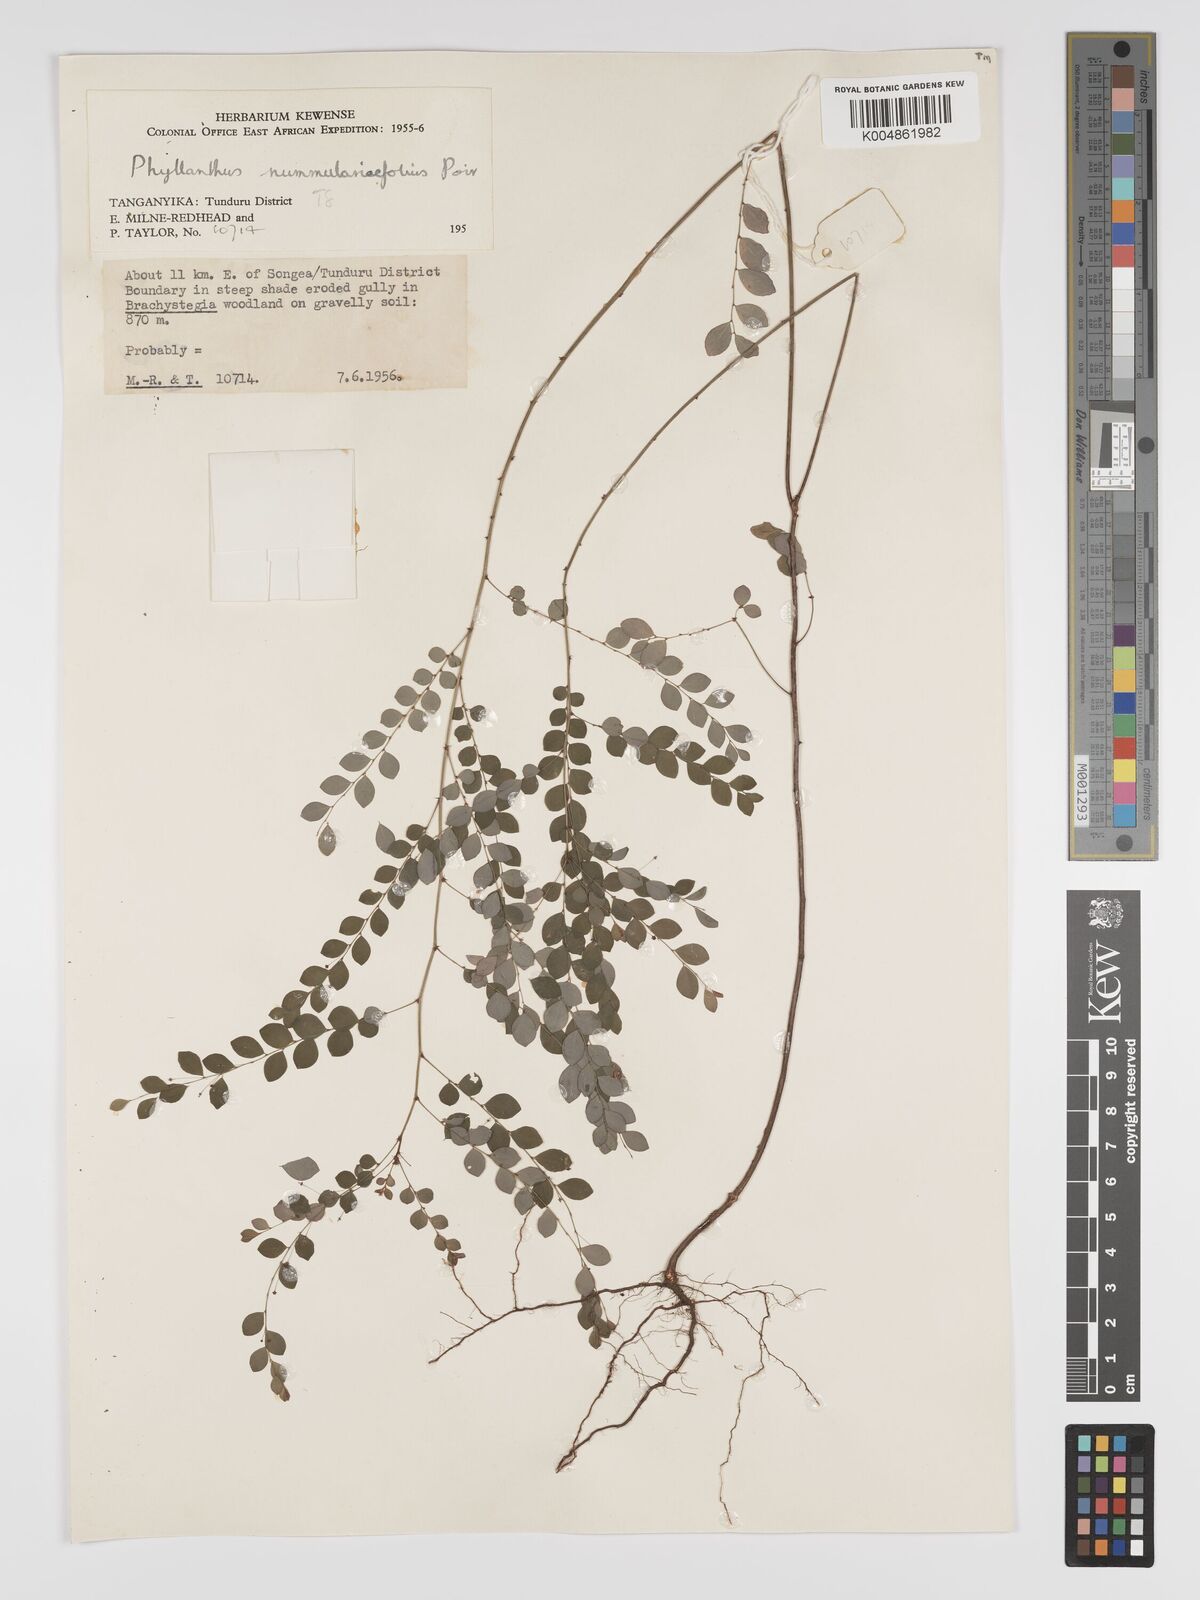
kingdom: Plantae
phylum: Tracheophyta
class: Magnoliopsida
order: Malpighiales
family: Phyllanthaceae
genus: Phyllanthus
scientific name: Phyllanthus nummulariifolius
